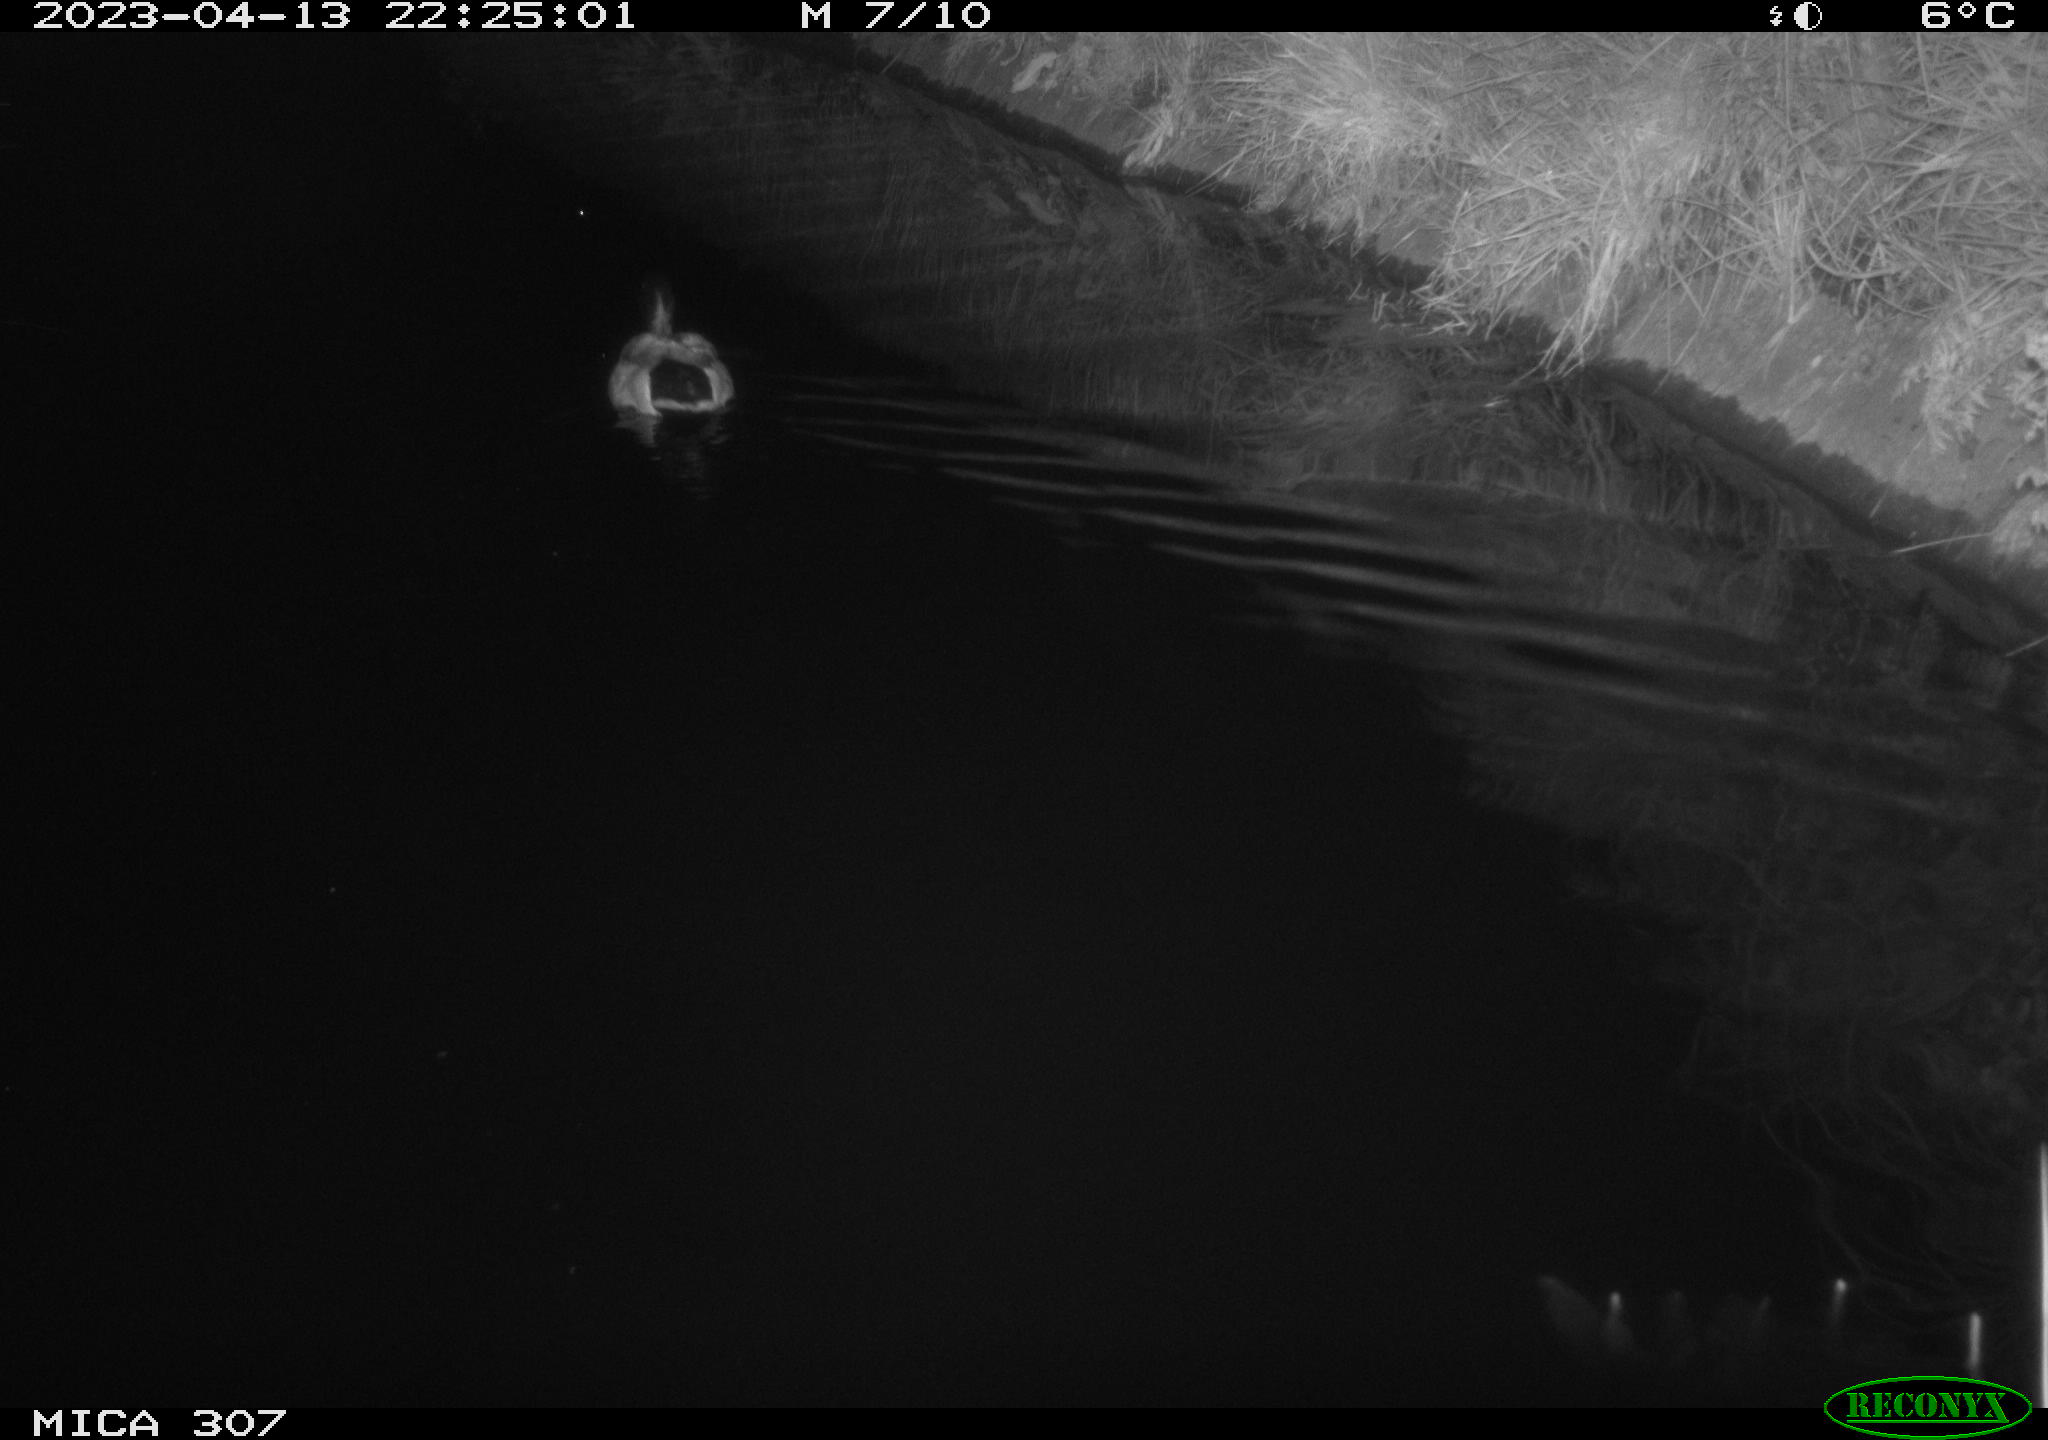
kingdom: Animalia
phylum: Chordata
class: Aves
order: Anseriformes
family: Anatidae
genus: Anas
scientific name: Anas
